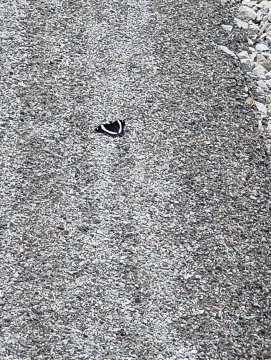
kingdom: Animalia
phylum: Arthropoda
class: Insecta
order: Lepidoptera
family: Nymphalidae
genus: Limenitis
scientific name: Limenitis arthemis
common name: Red-spotted Admiral
